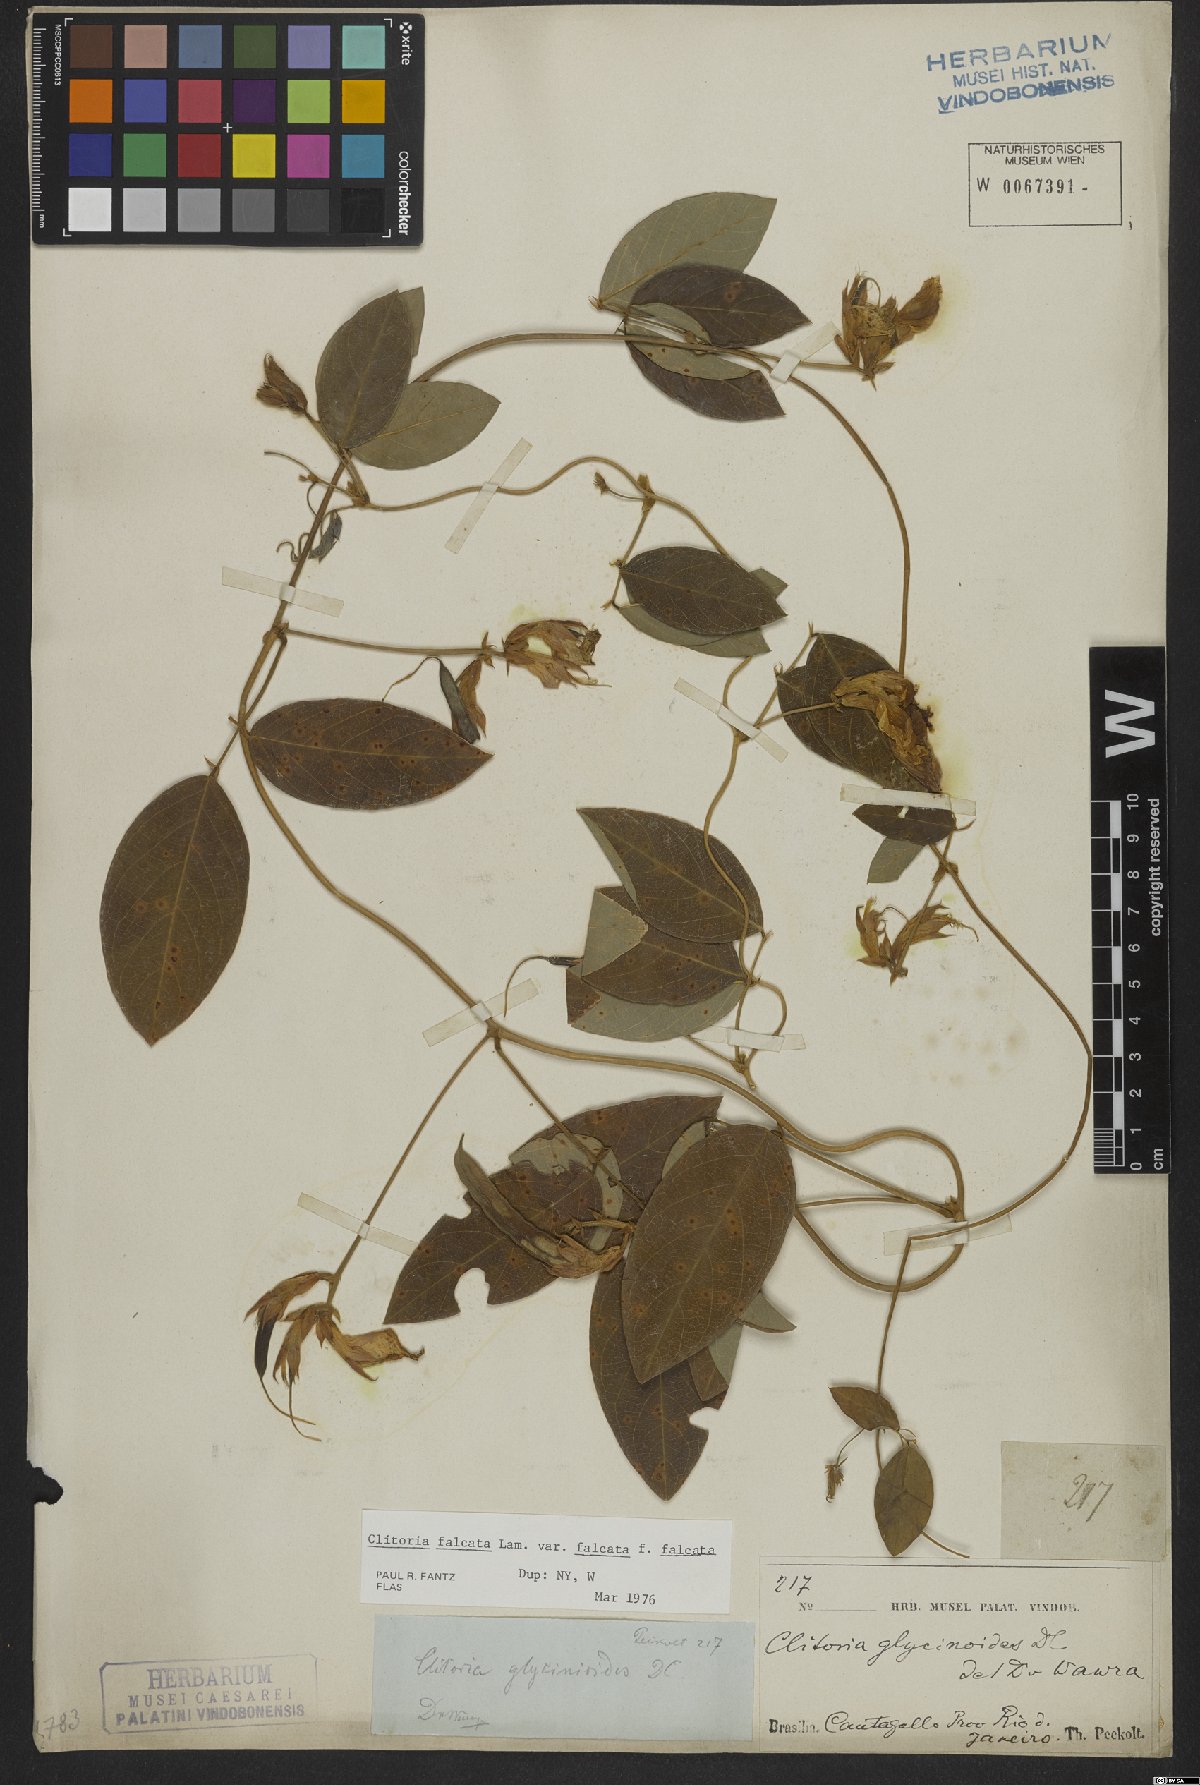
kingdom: Plantae
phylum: Tracheophyta
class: Magnoliopsida
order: Fabales
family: Fabaceae
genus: Clitoria
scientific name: Clitoria falcata
